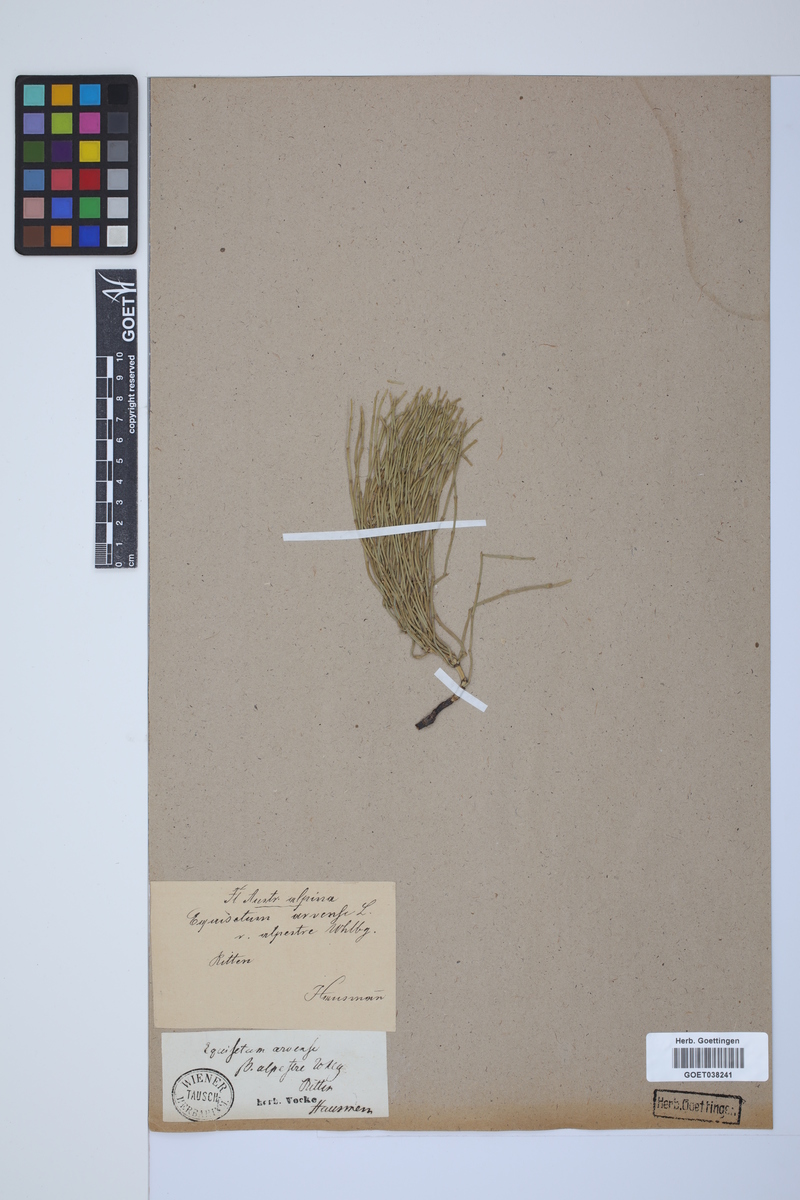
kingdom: Plantae
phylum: Tracheophyta
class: Polypodiopsida
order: Equisetales
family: Equisetaceae
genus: Equisetum
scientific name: Equisetum arvense
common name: Field horsetail
